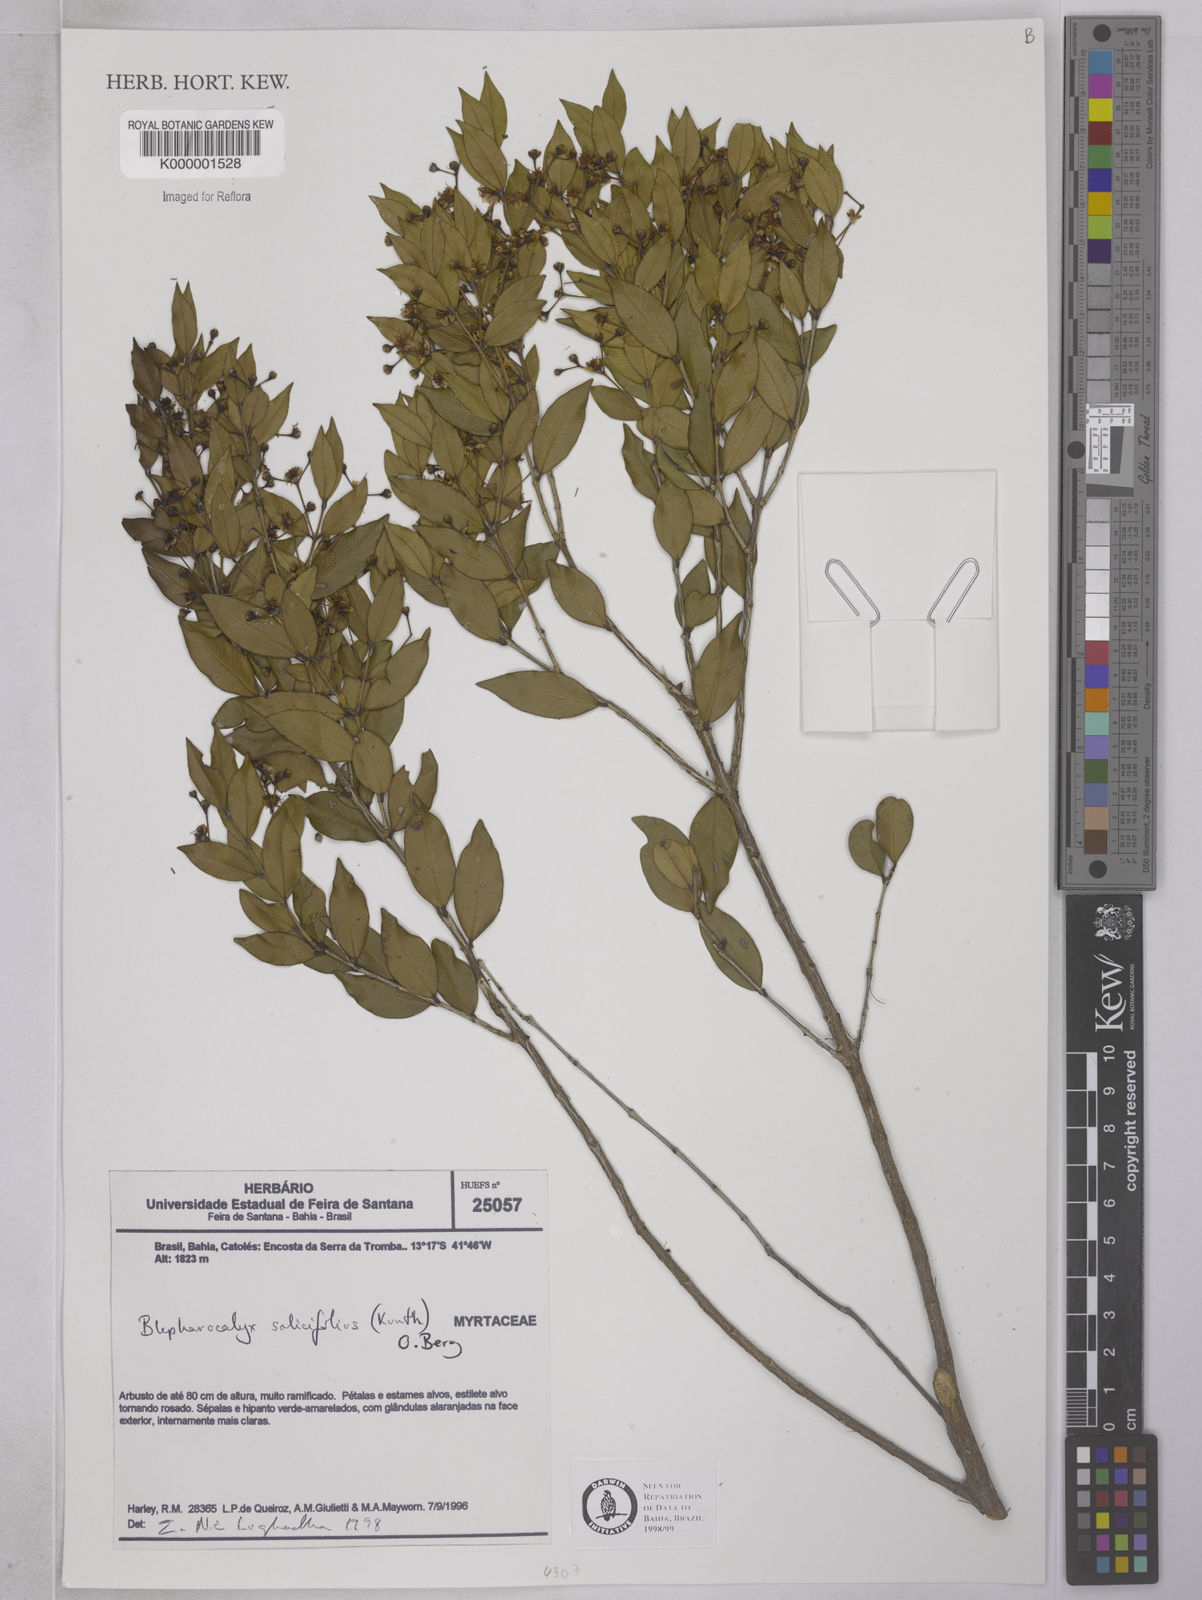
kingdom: Plantae
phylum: Tracheophyta
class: Magnoliopsida
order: Myrtales
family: Myrtaceae
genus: Blepharocalyx
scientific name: Blepharocalyx salicifolius
